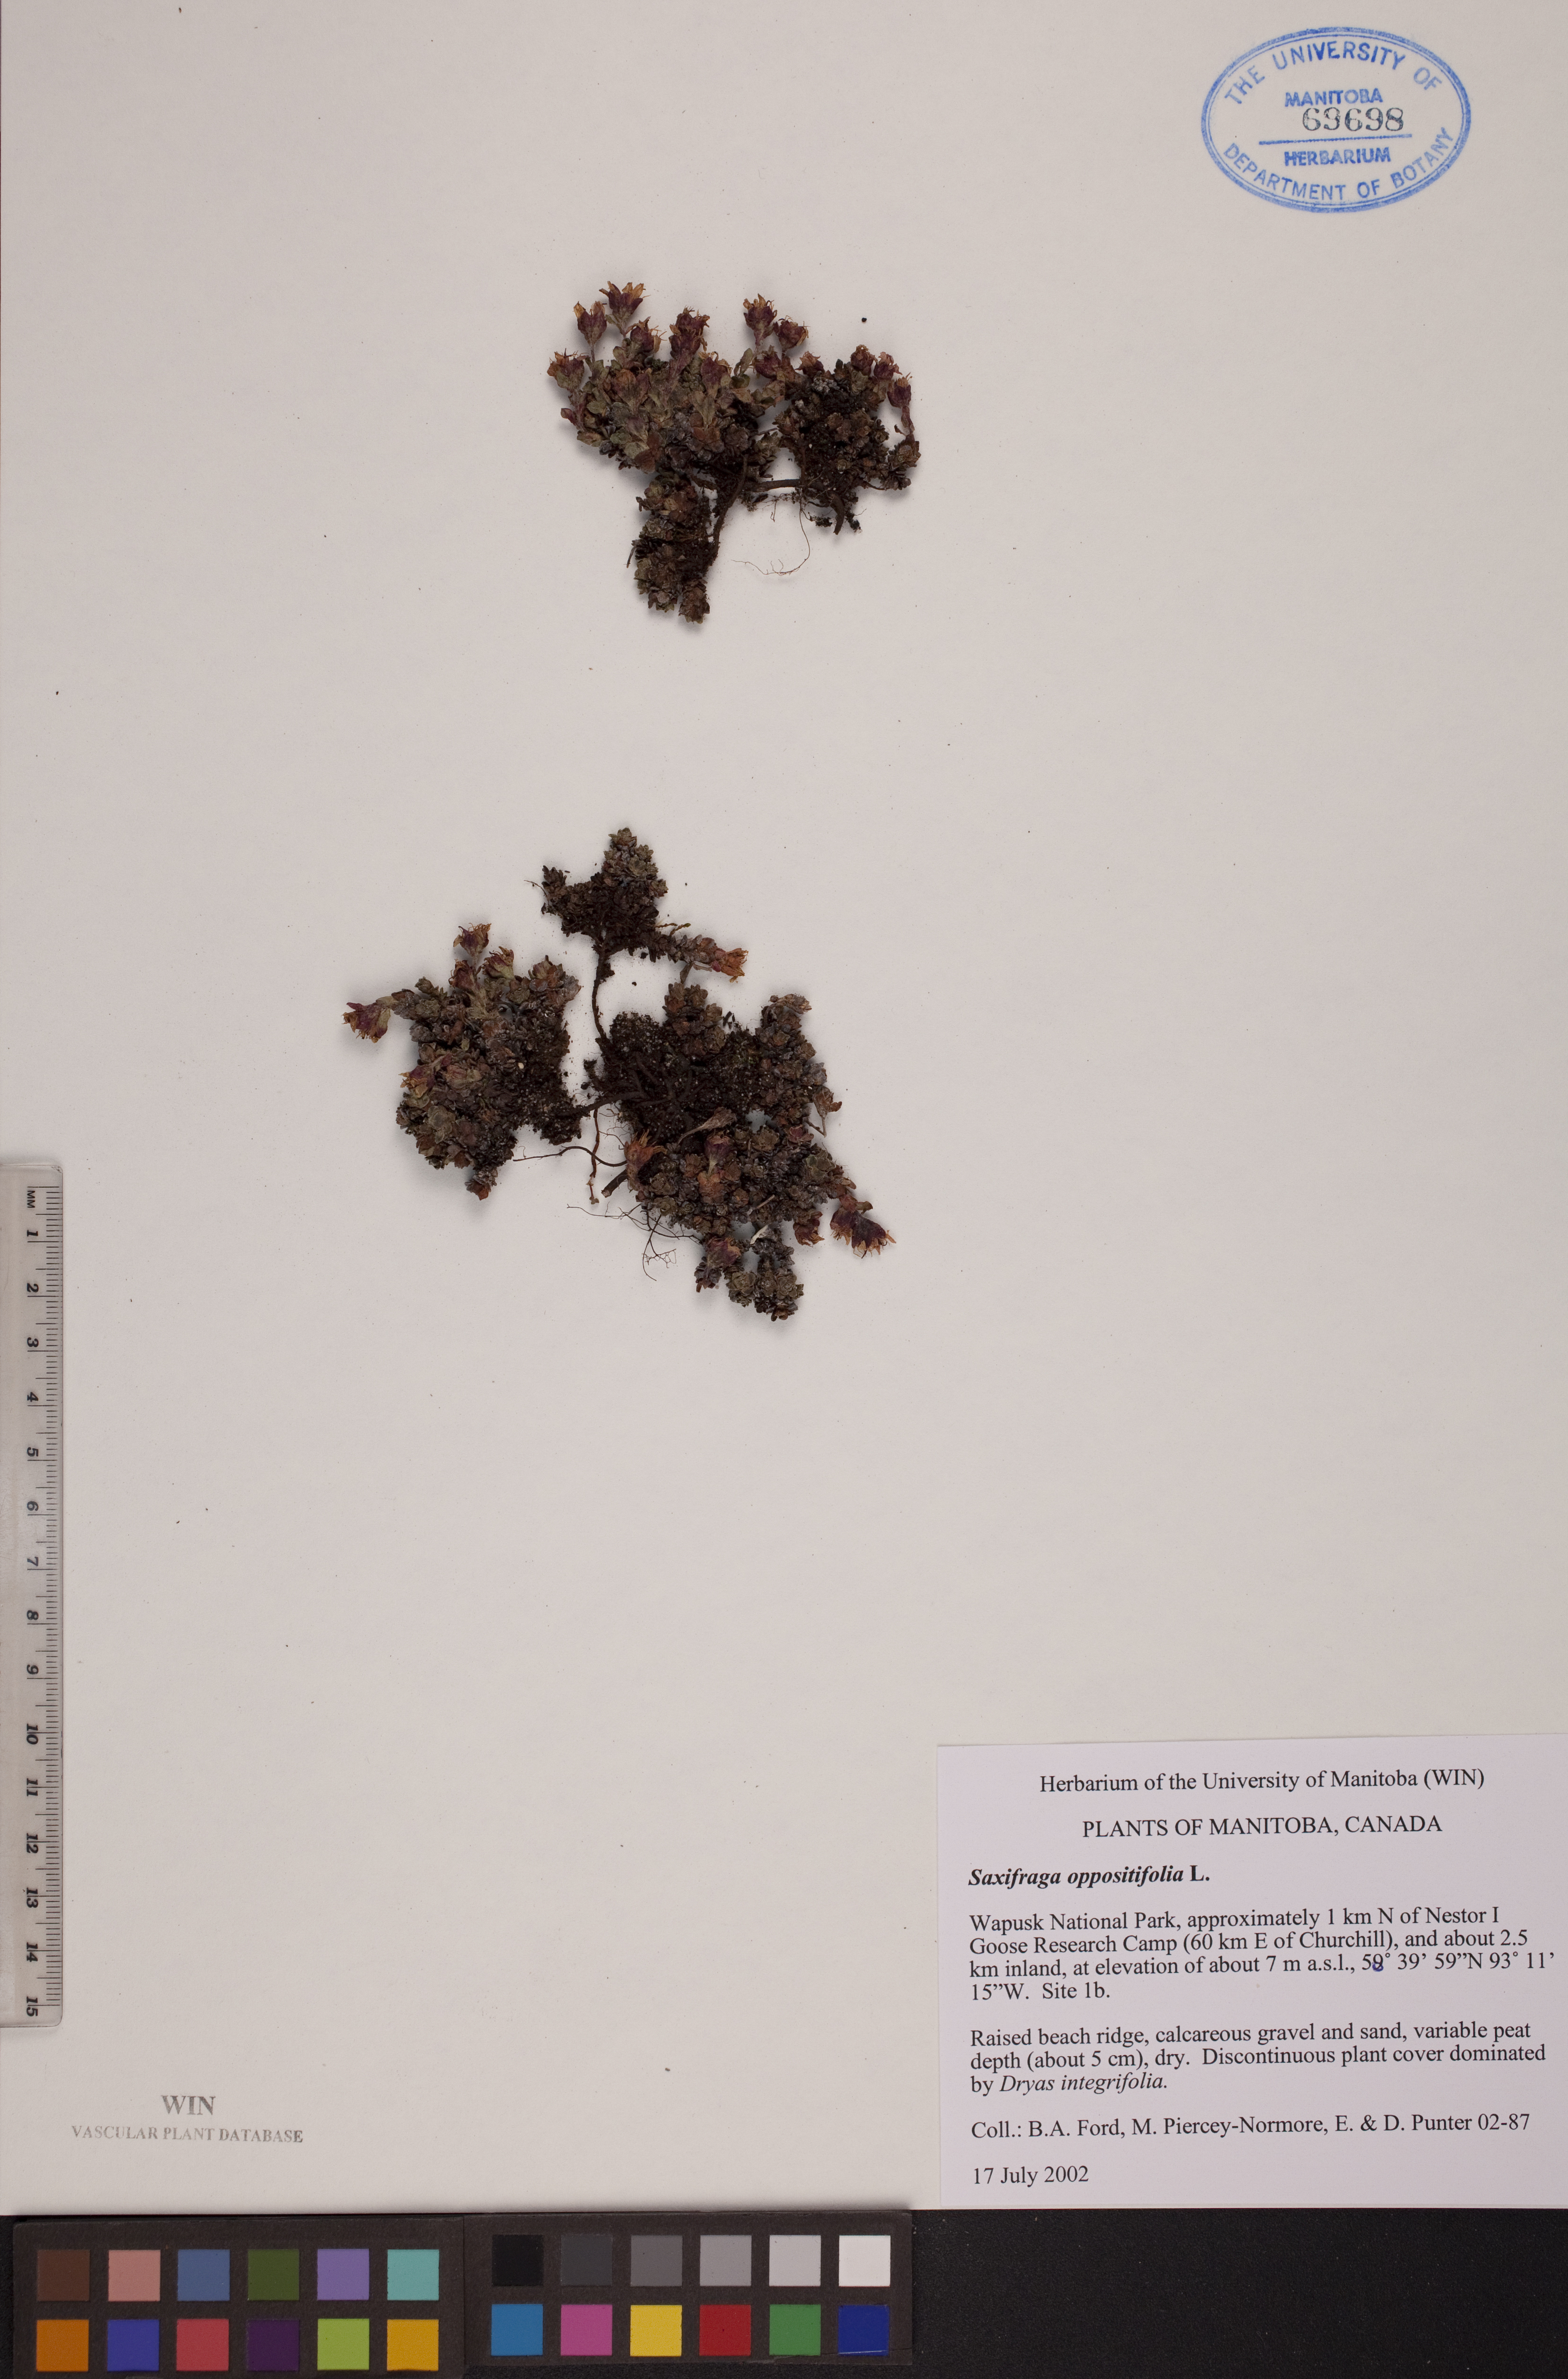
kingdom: Plantae
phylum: Tracheophyta
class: Magnoliopsida
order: Saxifragales
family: Saxifragaceae
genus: Saxifraga
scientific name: Saxifraga oppositifolia
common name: Purple saxifrage
